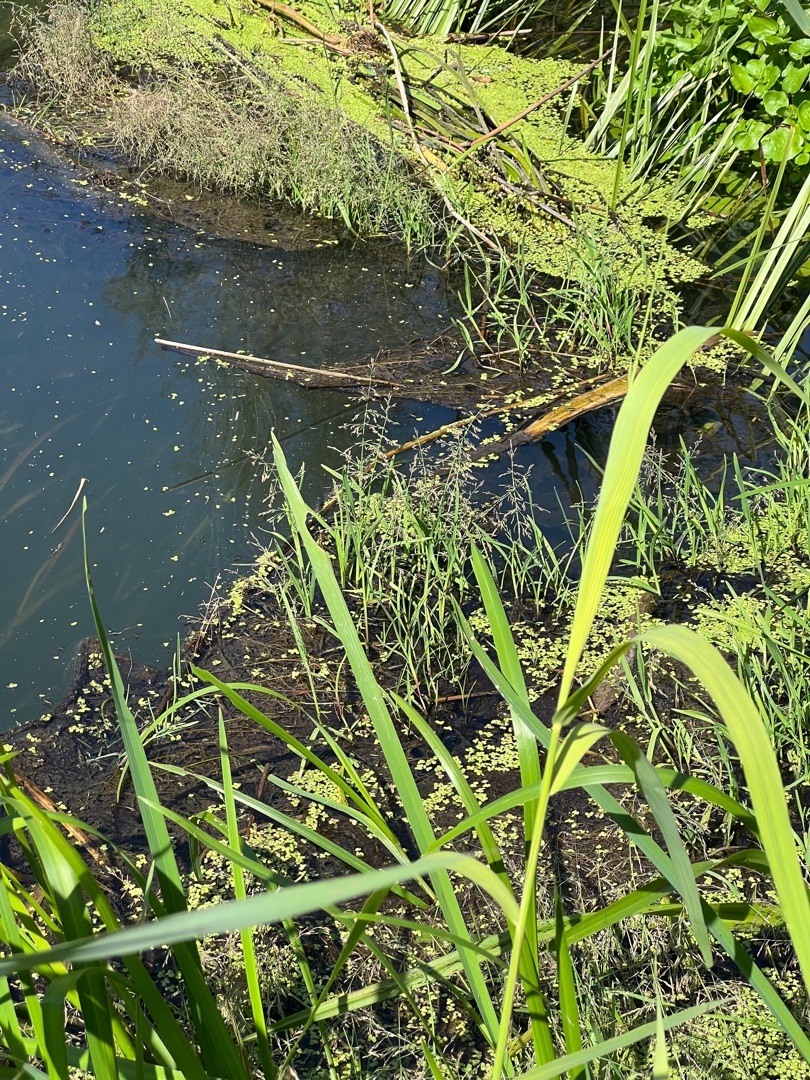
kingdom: Plantae
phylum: Tracheophyta
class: Liliopsida
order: Poales
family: Poaceae
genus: Catabrosa
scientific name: Catabrosa aquatica
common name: Tæppegræs
